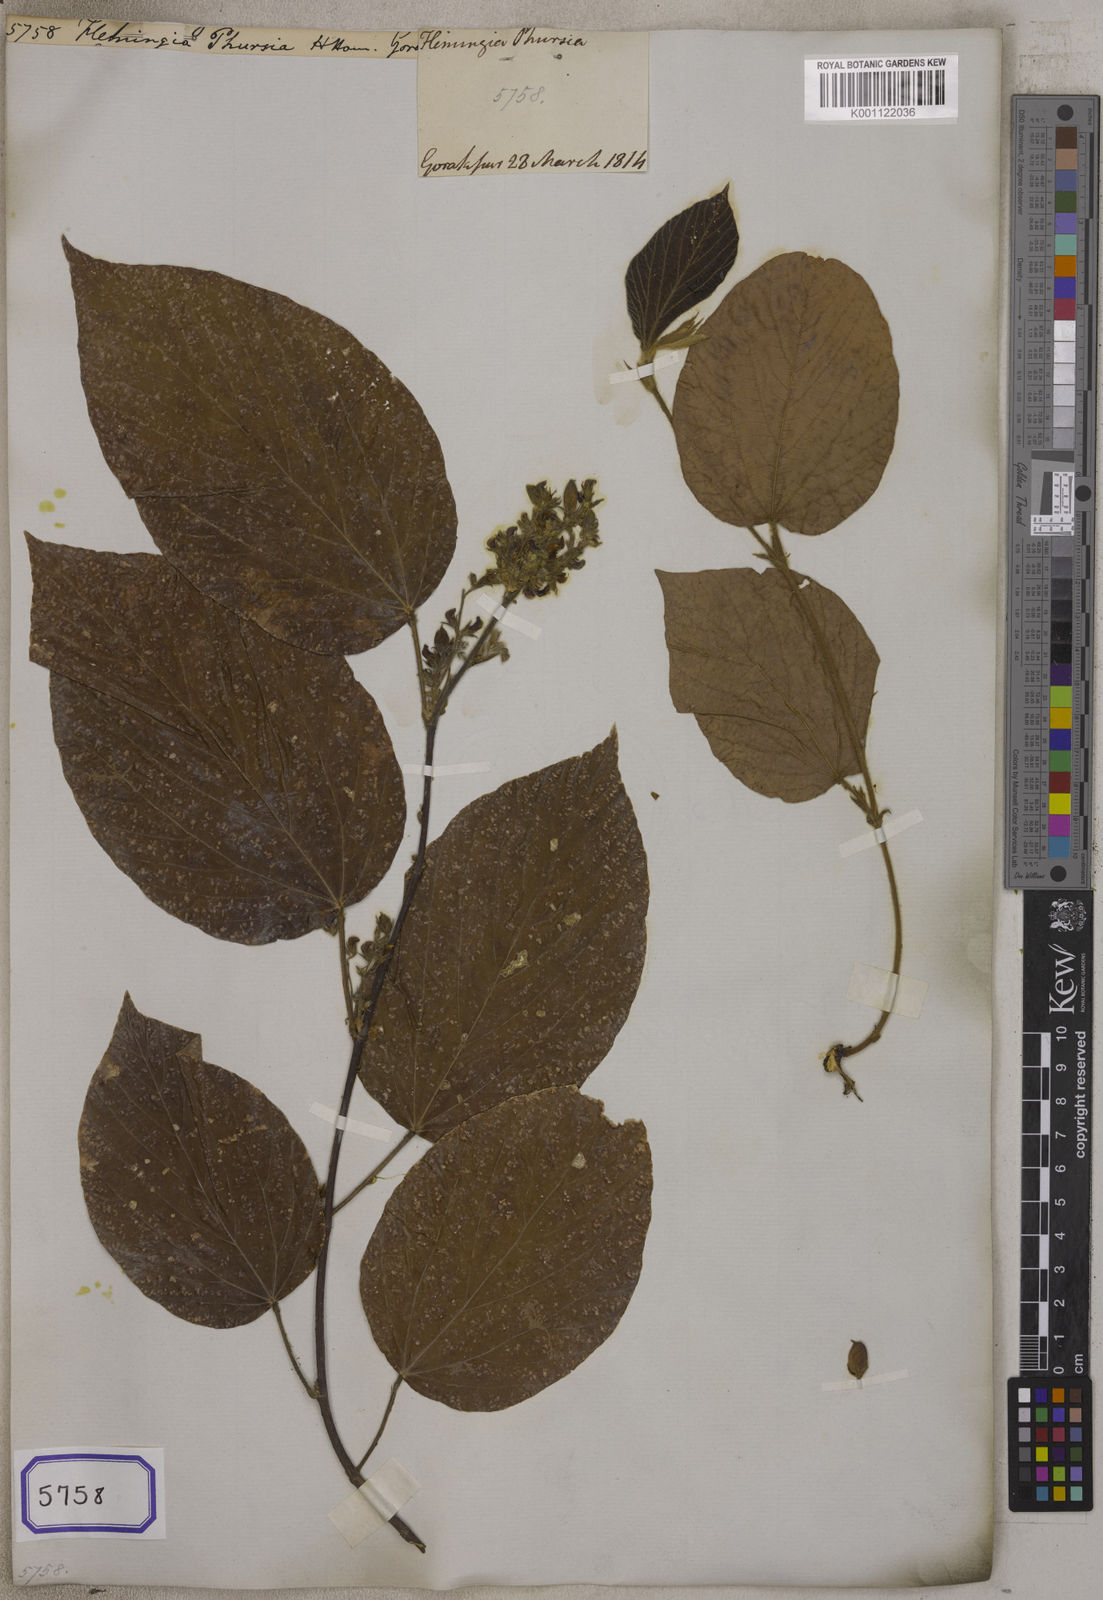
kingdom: Plantae
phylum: Tracheophyta
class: Magnoliopsida
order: Fabales
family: Fabaceae
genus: Flemingia
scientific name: Flemingia
